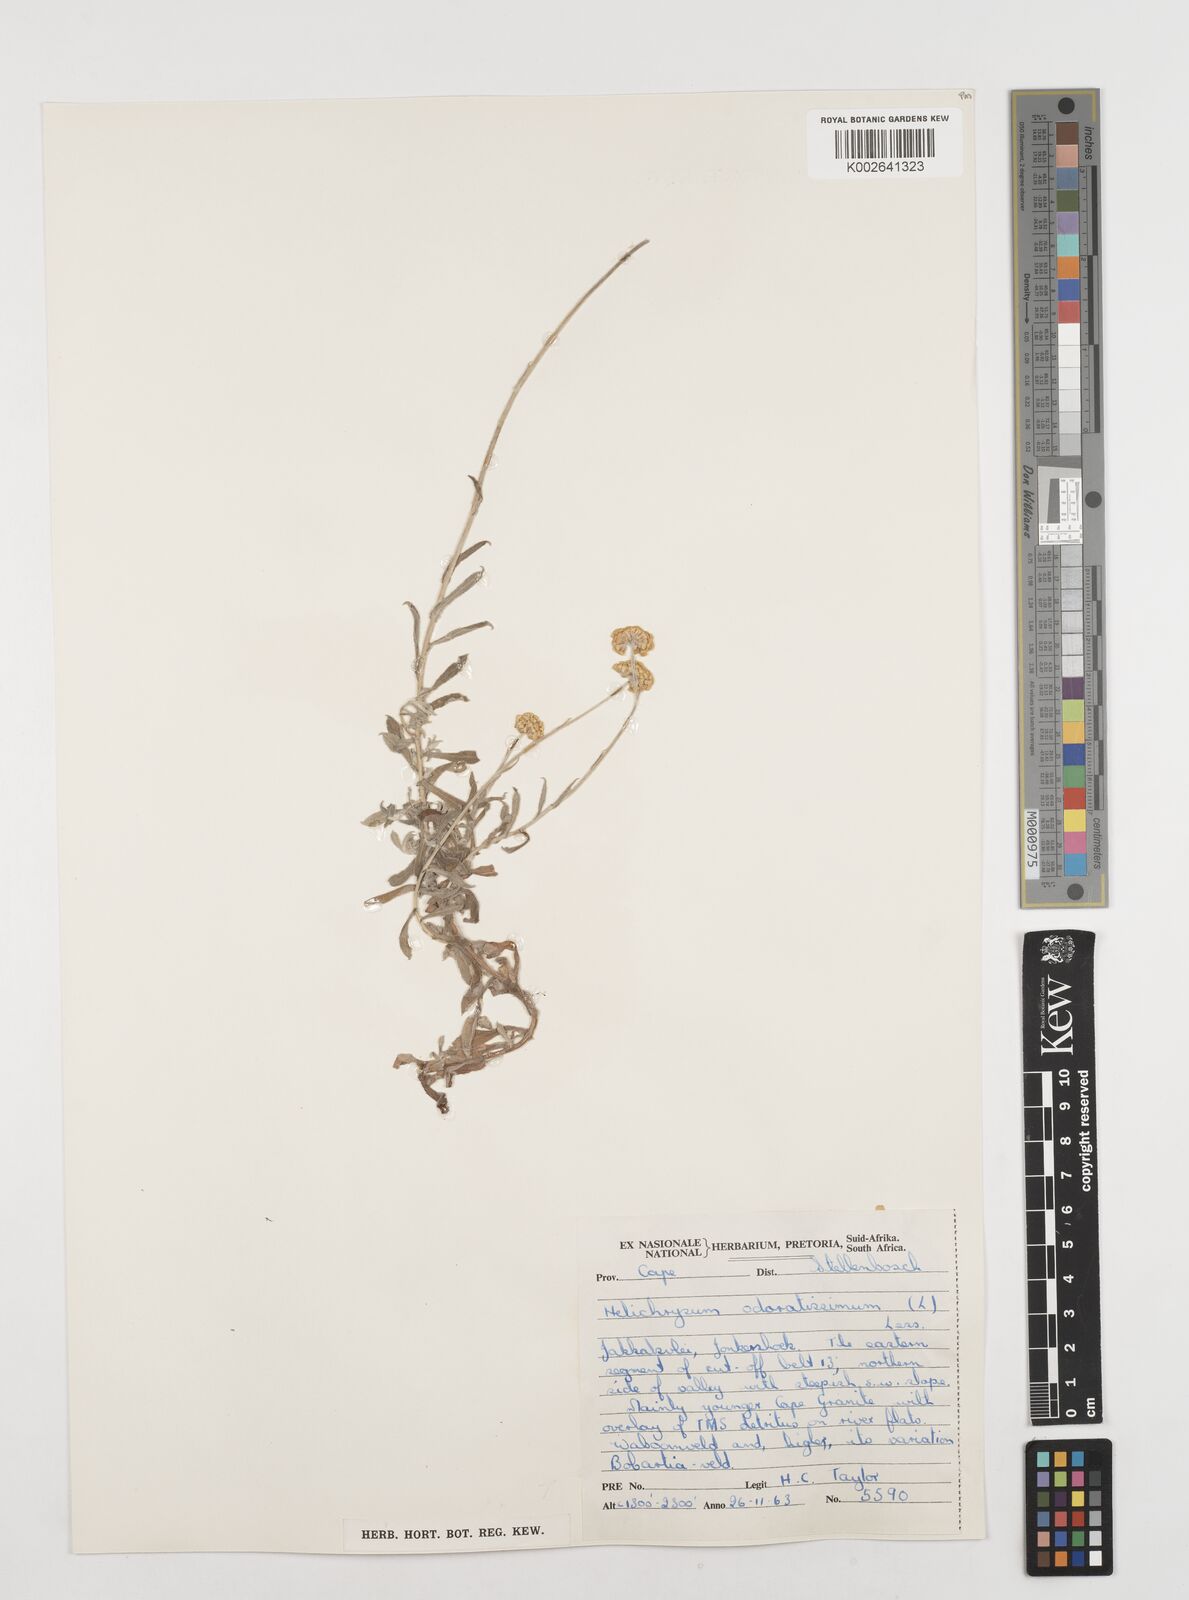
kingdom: Plantae
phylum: Tracheophyta
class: Magnoliopsida
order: Asterales
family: Asteraceae
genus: Helichrysum
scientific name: Helichrysum odoratissimum
